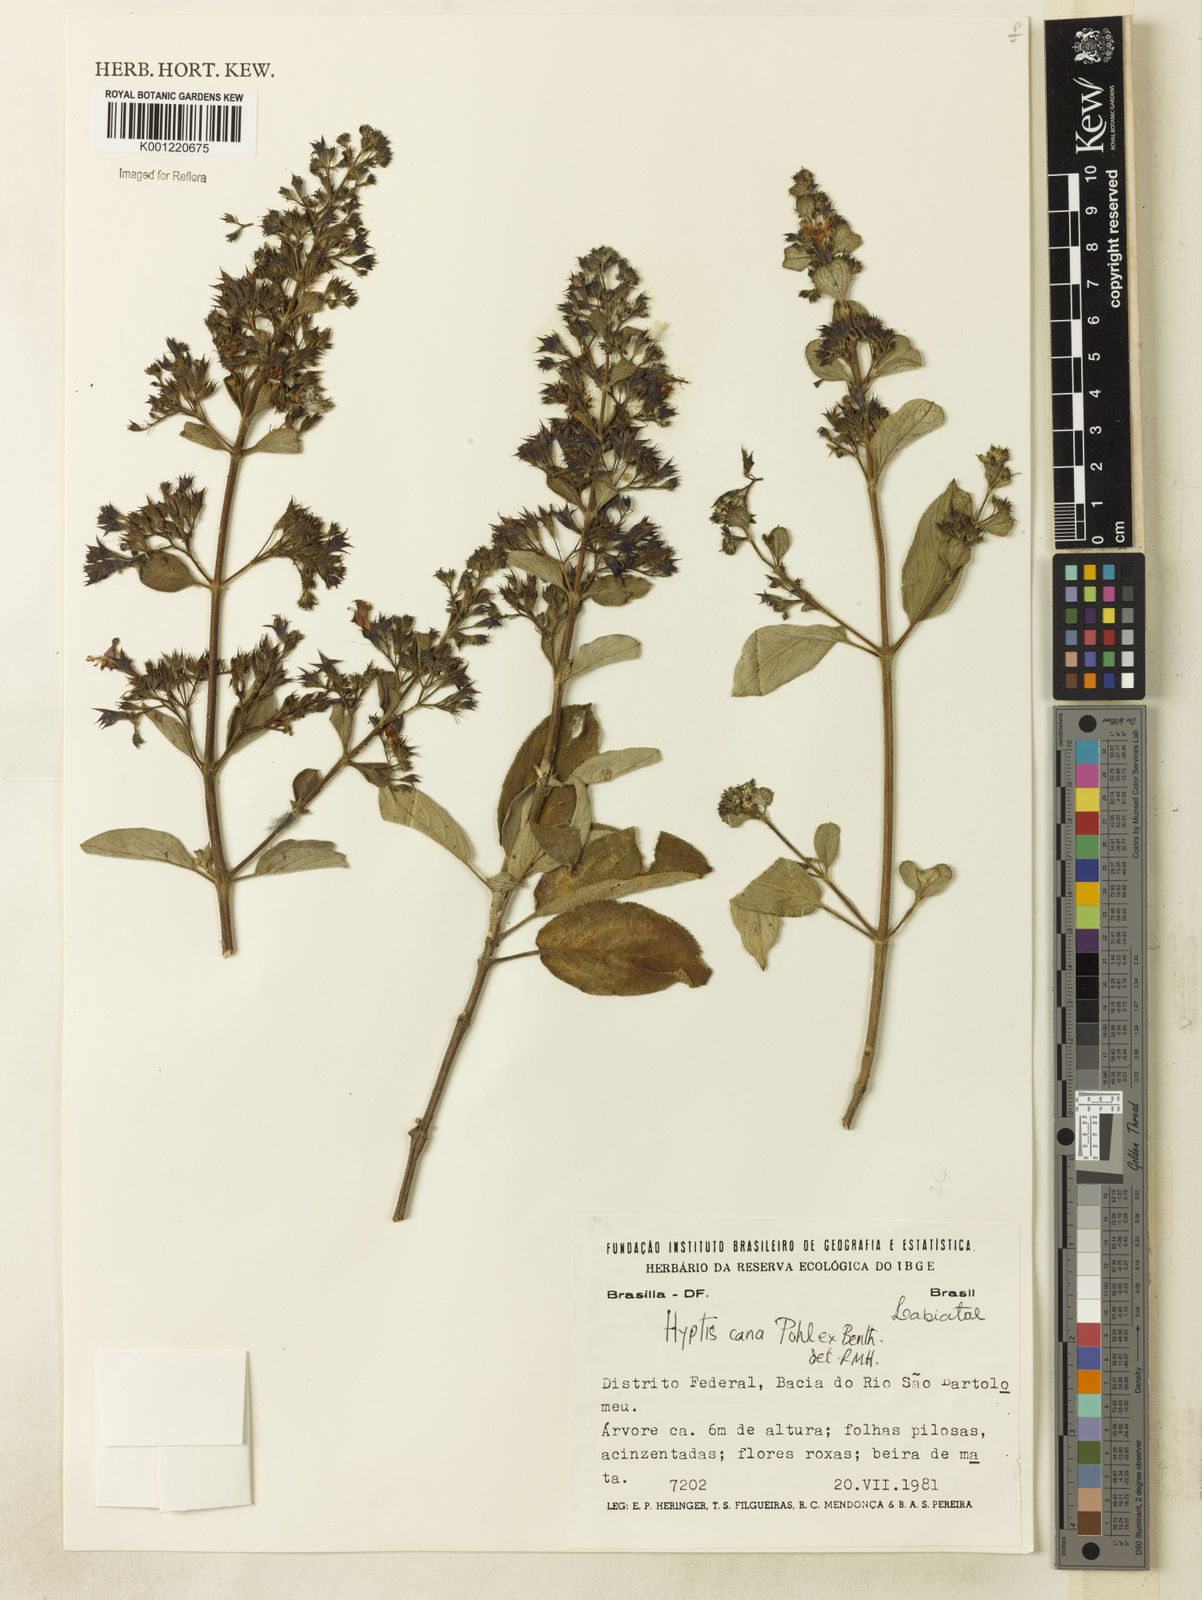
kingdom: Plantae
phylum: Tracheophyta
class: Magnoliopsida
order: Lamiales
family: Lamiaceae
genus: Hyptidendron
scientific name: Hyptidendron canum
